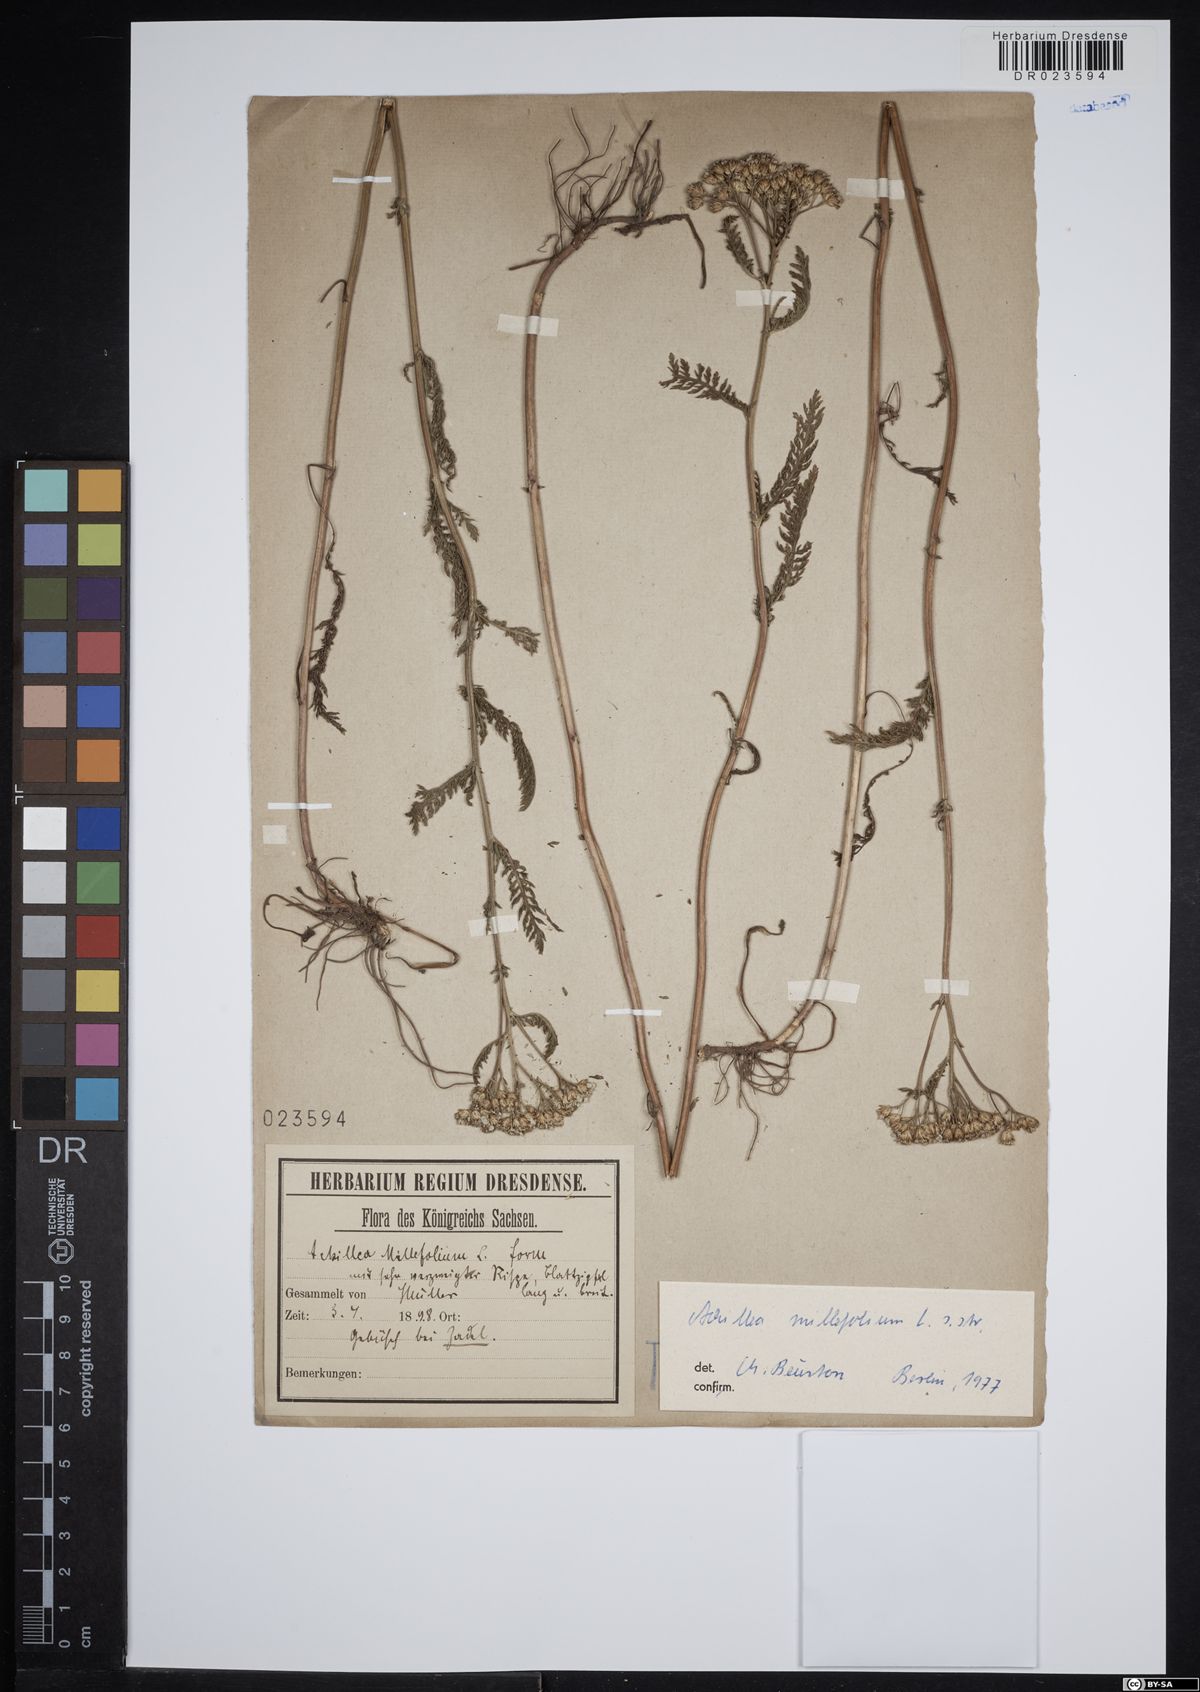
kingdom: Plantae
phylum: Tracheophyta
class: Magnoliopsida
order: Asterales
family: Asteraceae
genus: Achillea
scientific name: Achillea millefolium
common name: Yarrow
